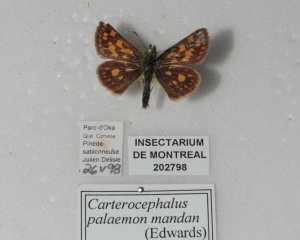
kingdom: Animalia
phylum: Arthropoda
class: Insecta
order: Lepidoptera
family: Hesperiidae
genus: Carterocephalus
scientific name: Carterocephalus palaemon
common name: Chequered Skipper
